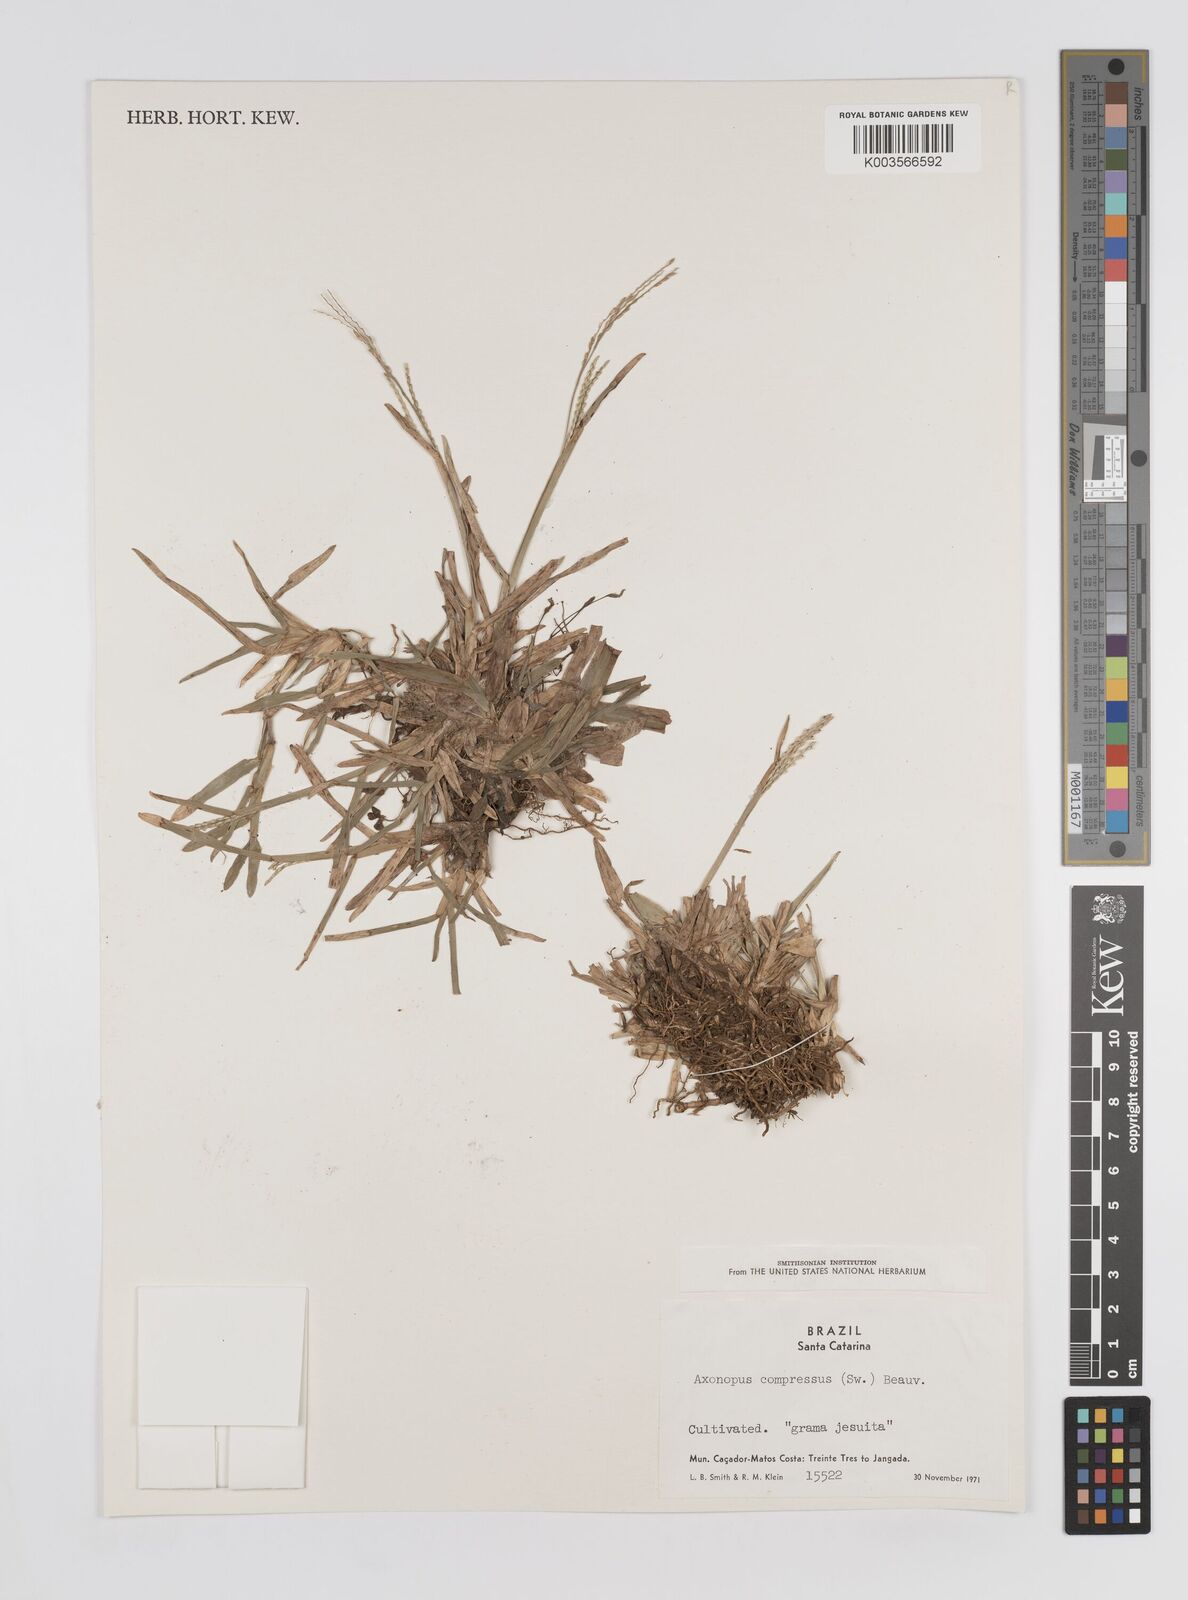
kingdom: Plantae
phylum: Tracheophyta
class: Liliopsida
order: Poales
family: Poaceae
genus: Axonopus
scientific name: Axonopus compressus
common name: American carpet grass
